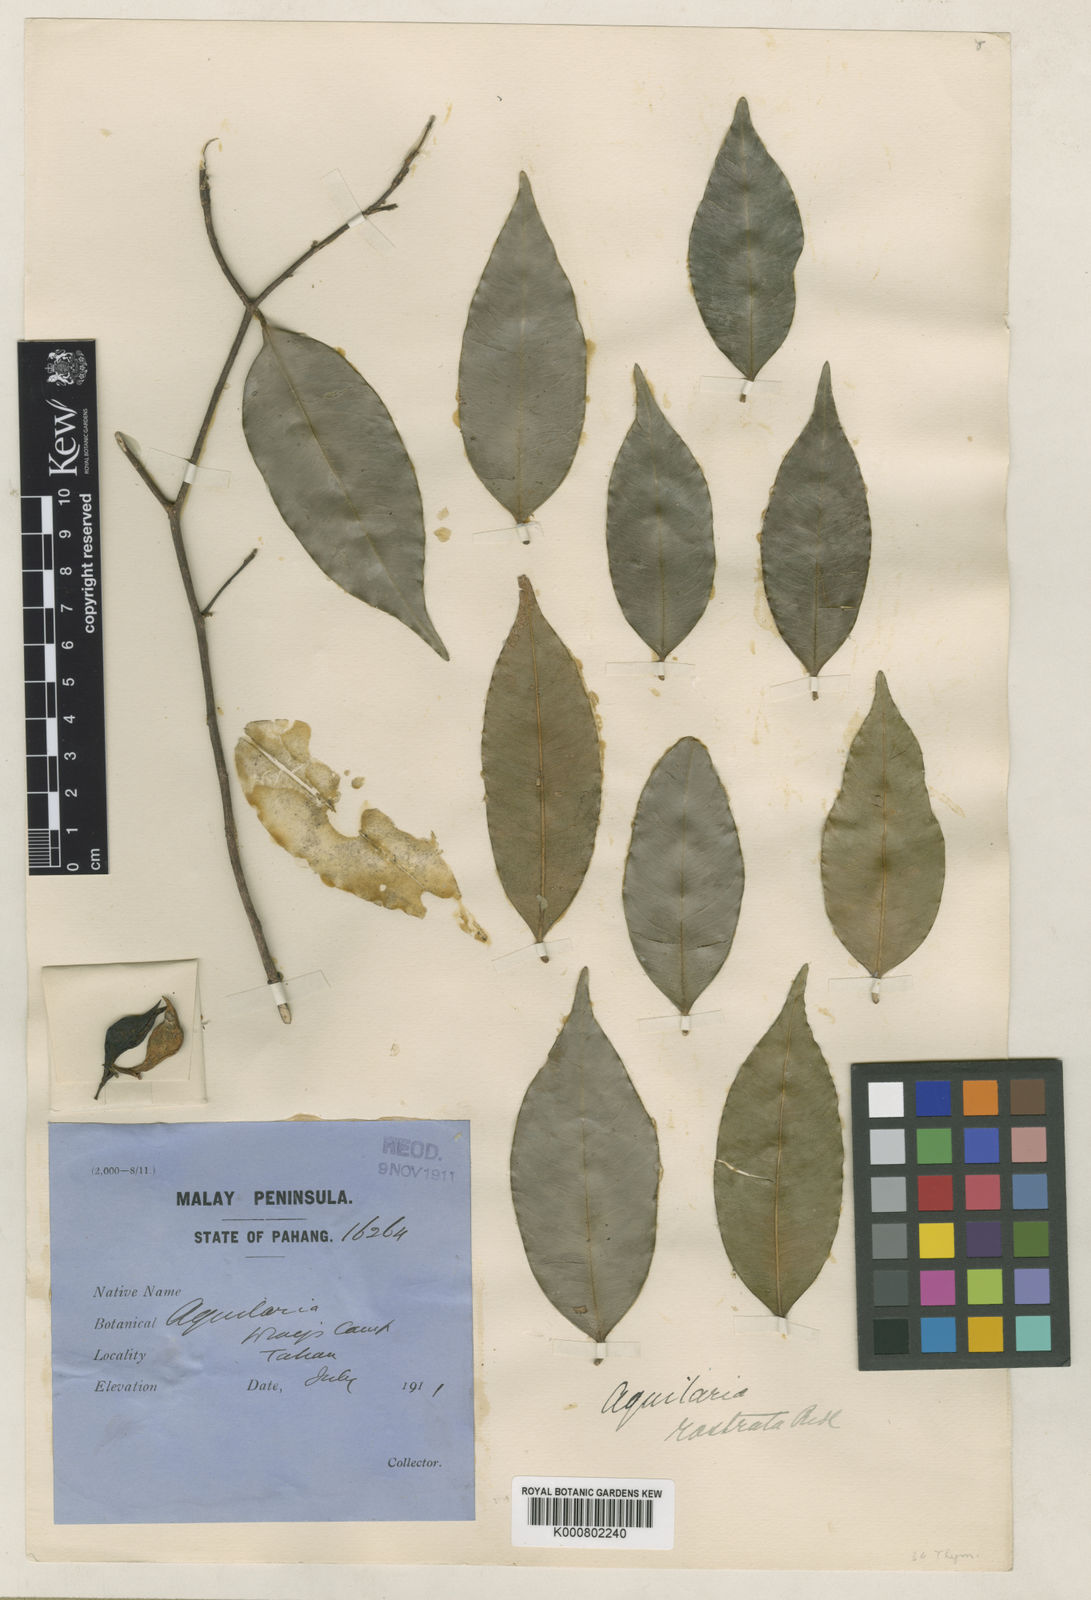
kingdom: Plantae
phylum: Tracheophyta
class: Magnoliopsida
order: Malvales
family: Thymelaeaceae
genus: Aquilaria
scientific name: Aquilaria rostrata
